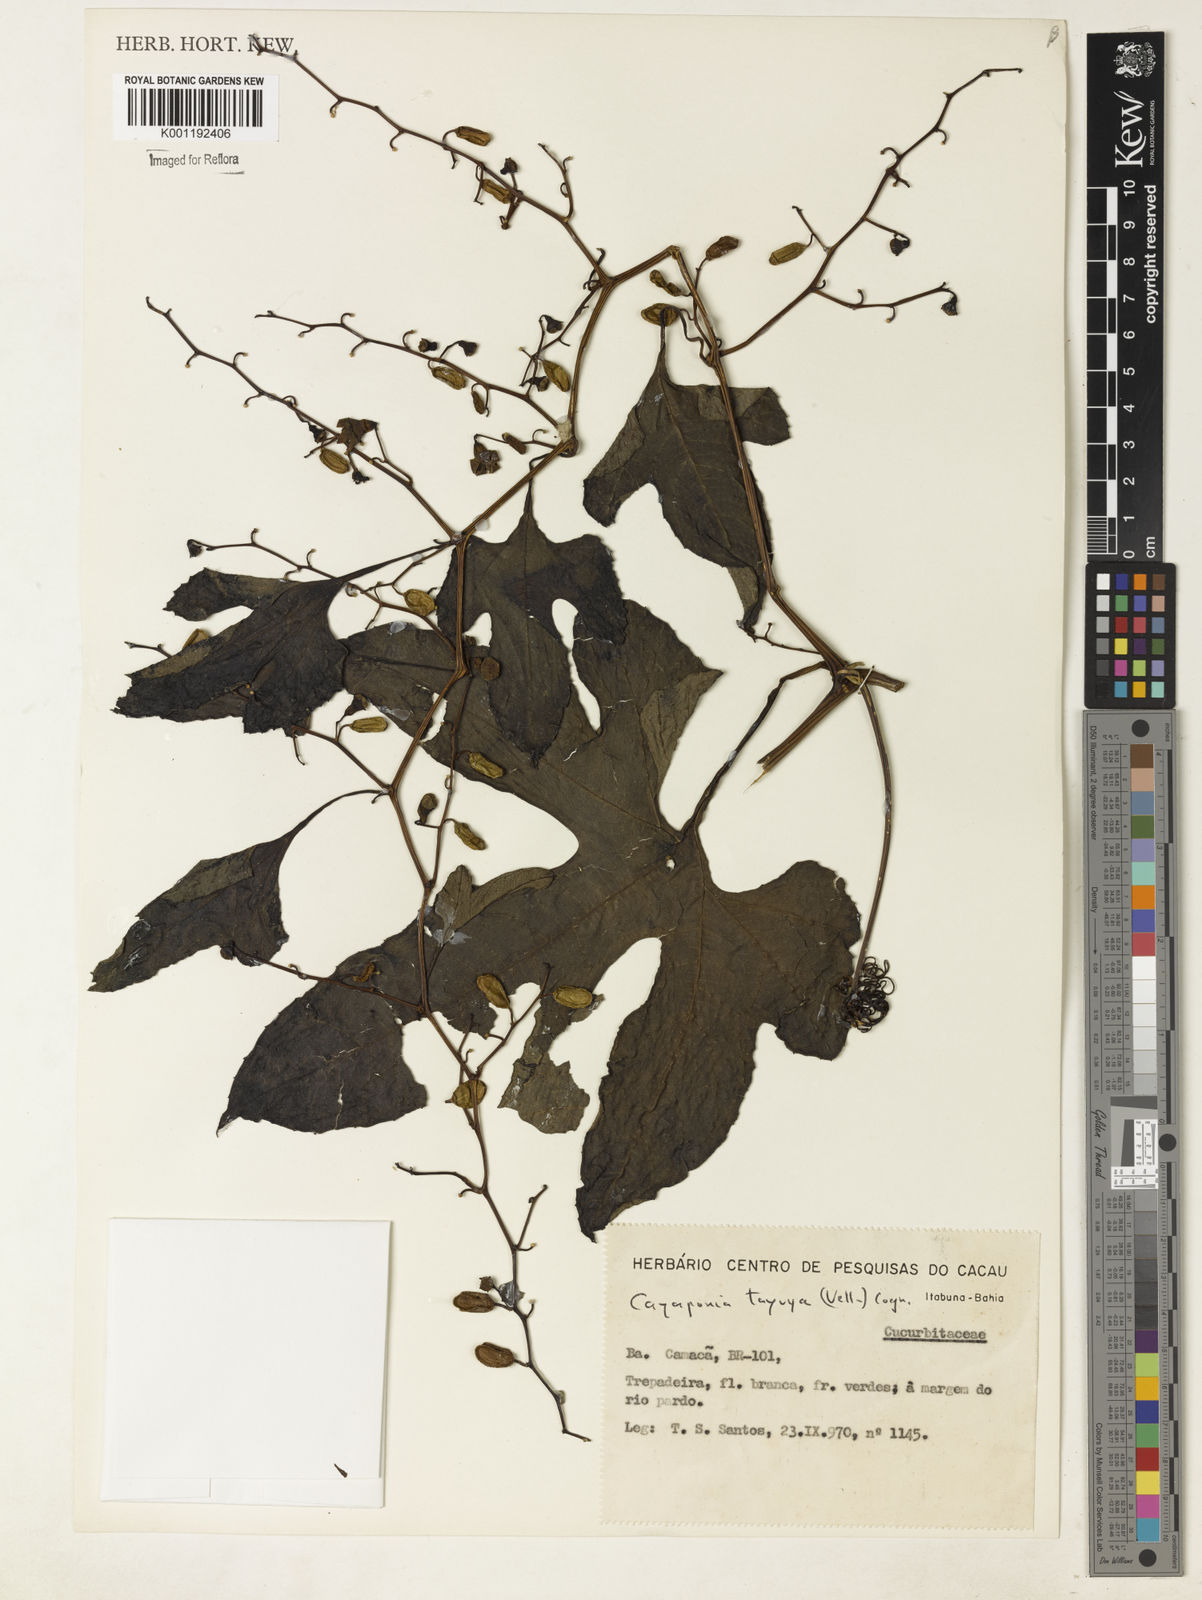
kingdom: Plantae
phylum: Tracheophyta
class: Magnoliopsida
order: Cucurbitales
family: Cucurbitaceae
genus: Cayaponia
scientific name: Cayaponia tayuya
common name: Tayuya
